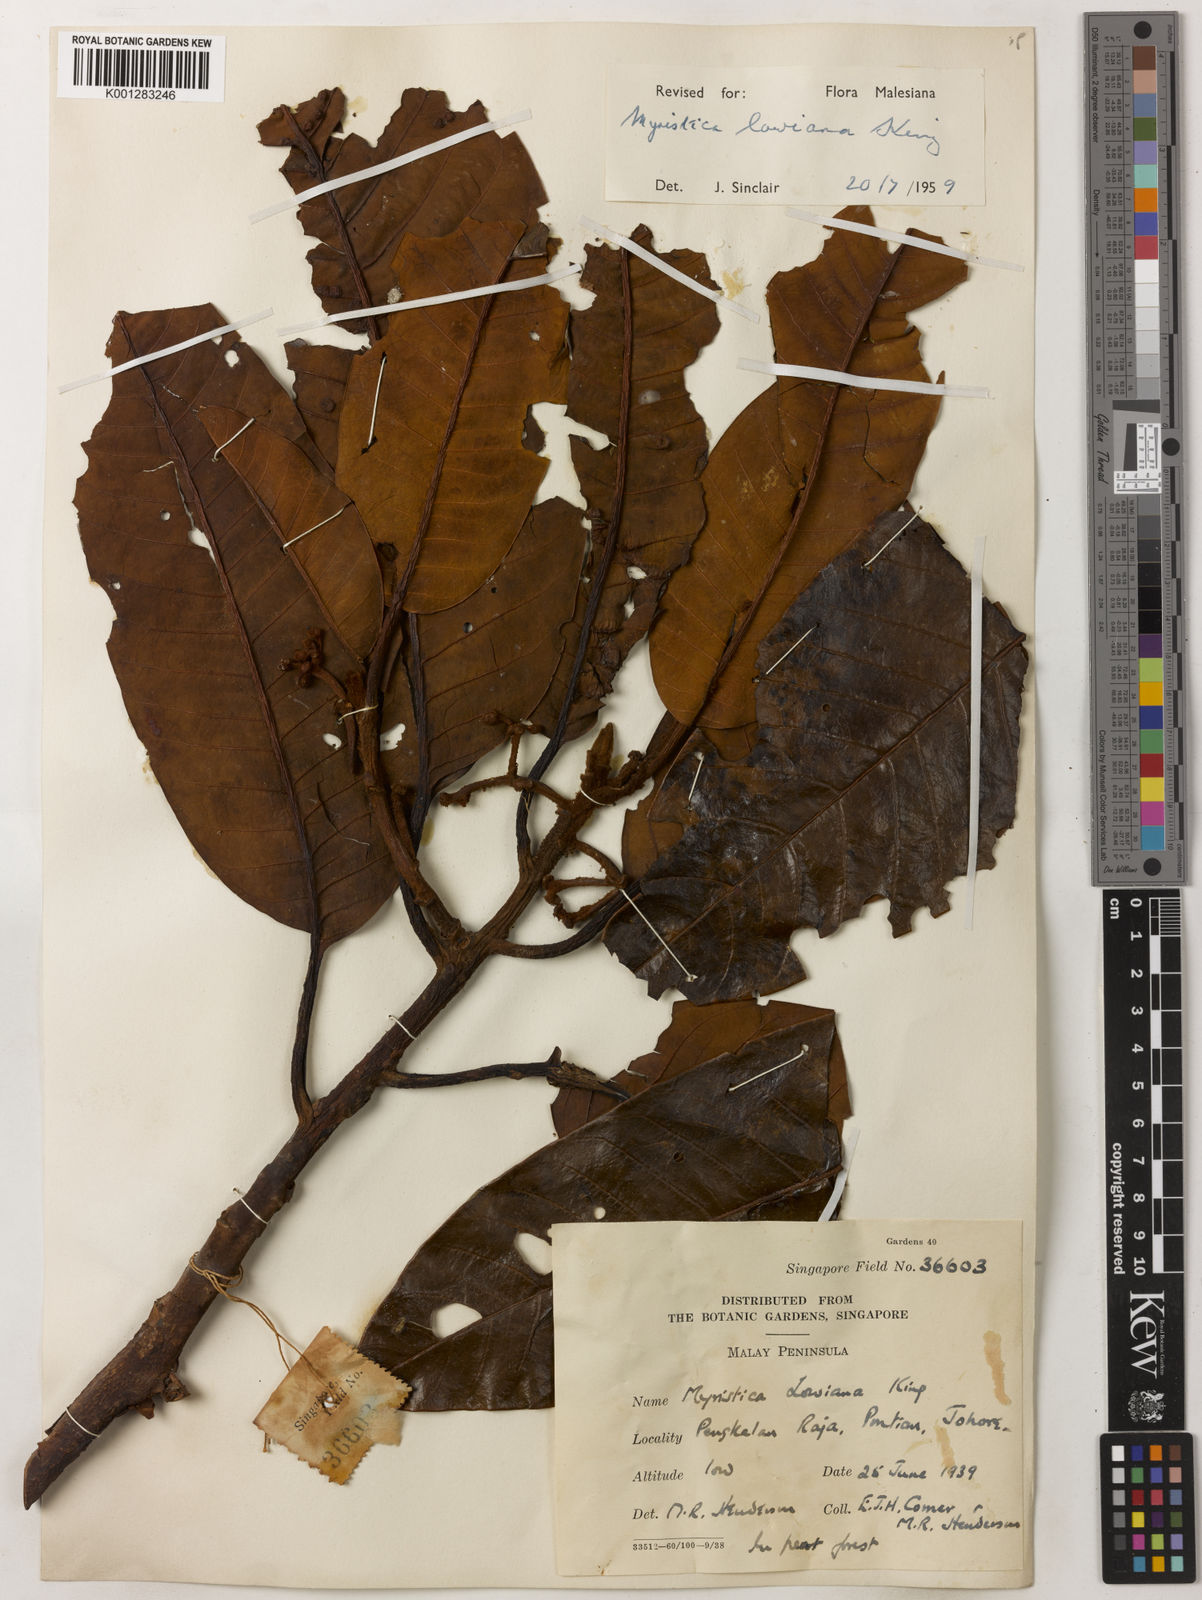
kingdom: Plantae
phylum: Tracheophyta
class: Magnoliopsida
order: Magnoliales
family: Myristicaceae
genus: Myristica
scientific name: Myristica lowiana
